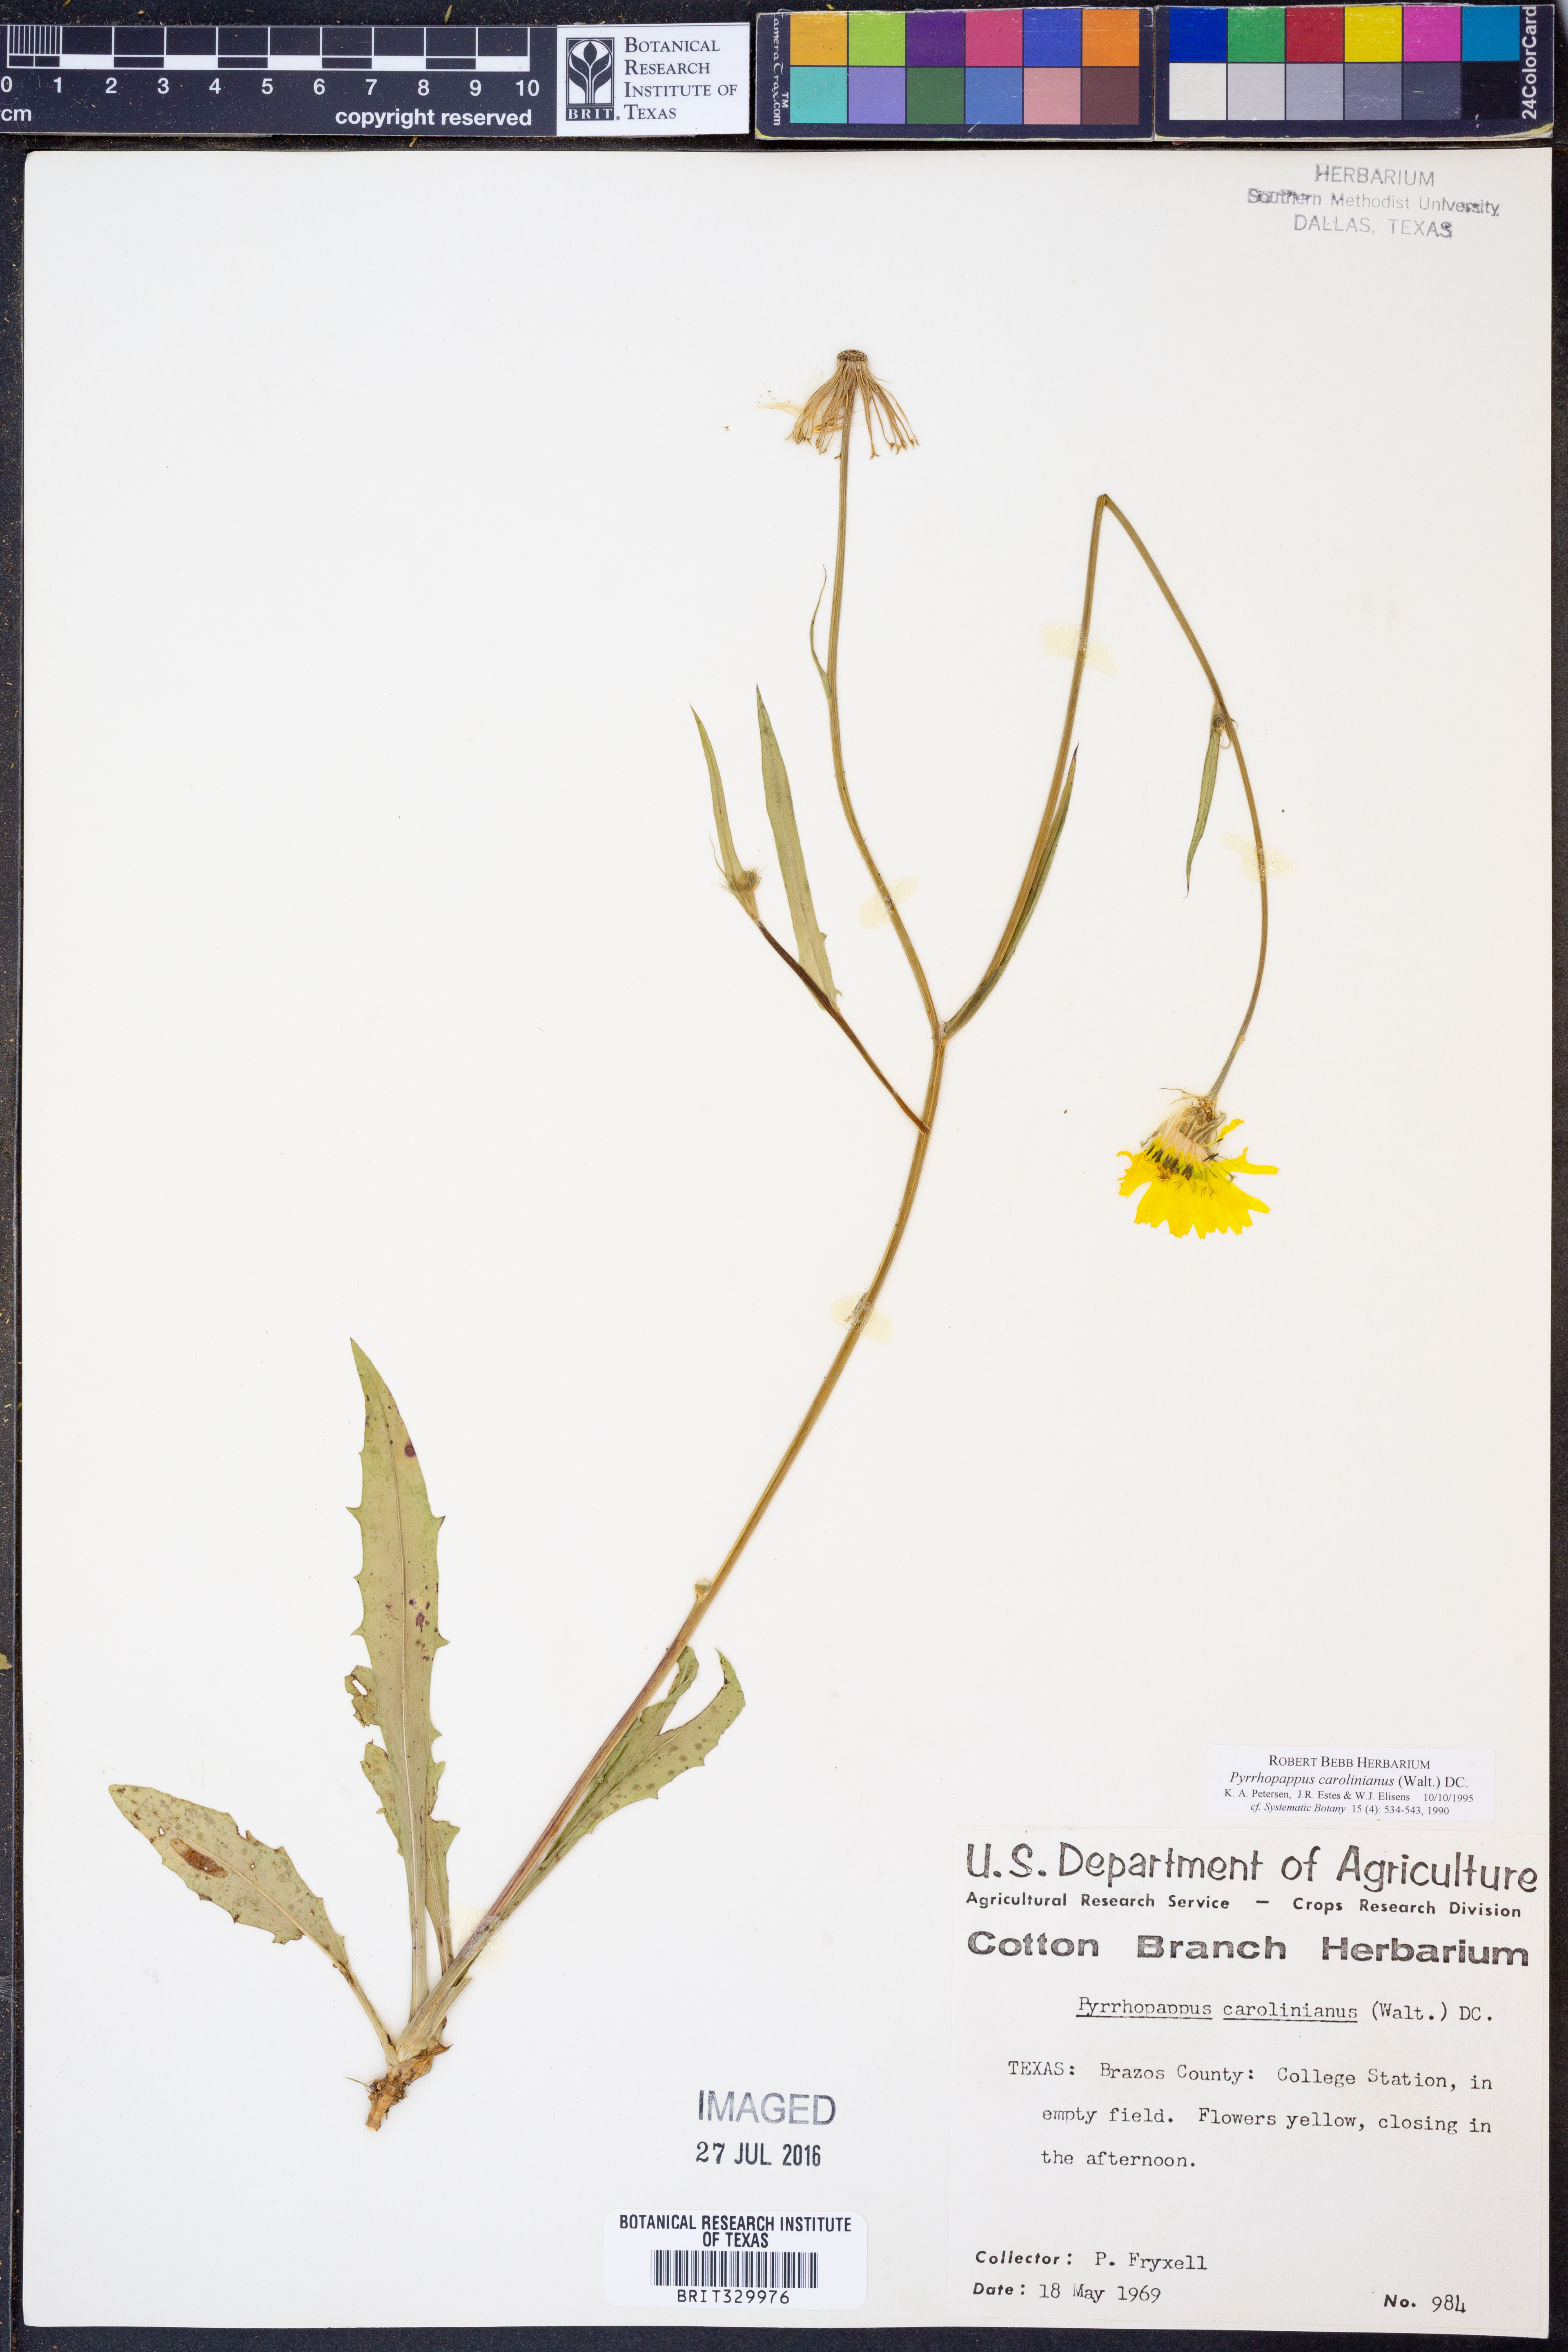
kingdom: Plantae
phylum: Tracheophyta
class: Magnoliopsida
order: Asterales
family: Asteraceae
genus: Pyrrhopappus
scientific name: Pyrrhopappus carolinianus
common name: Carolina desert-chicory
